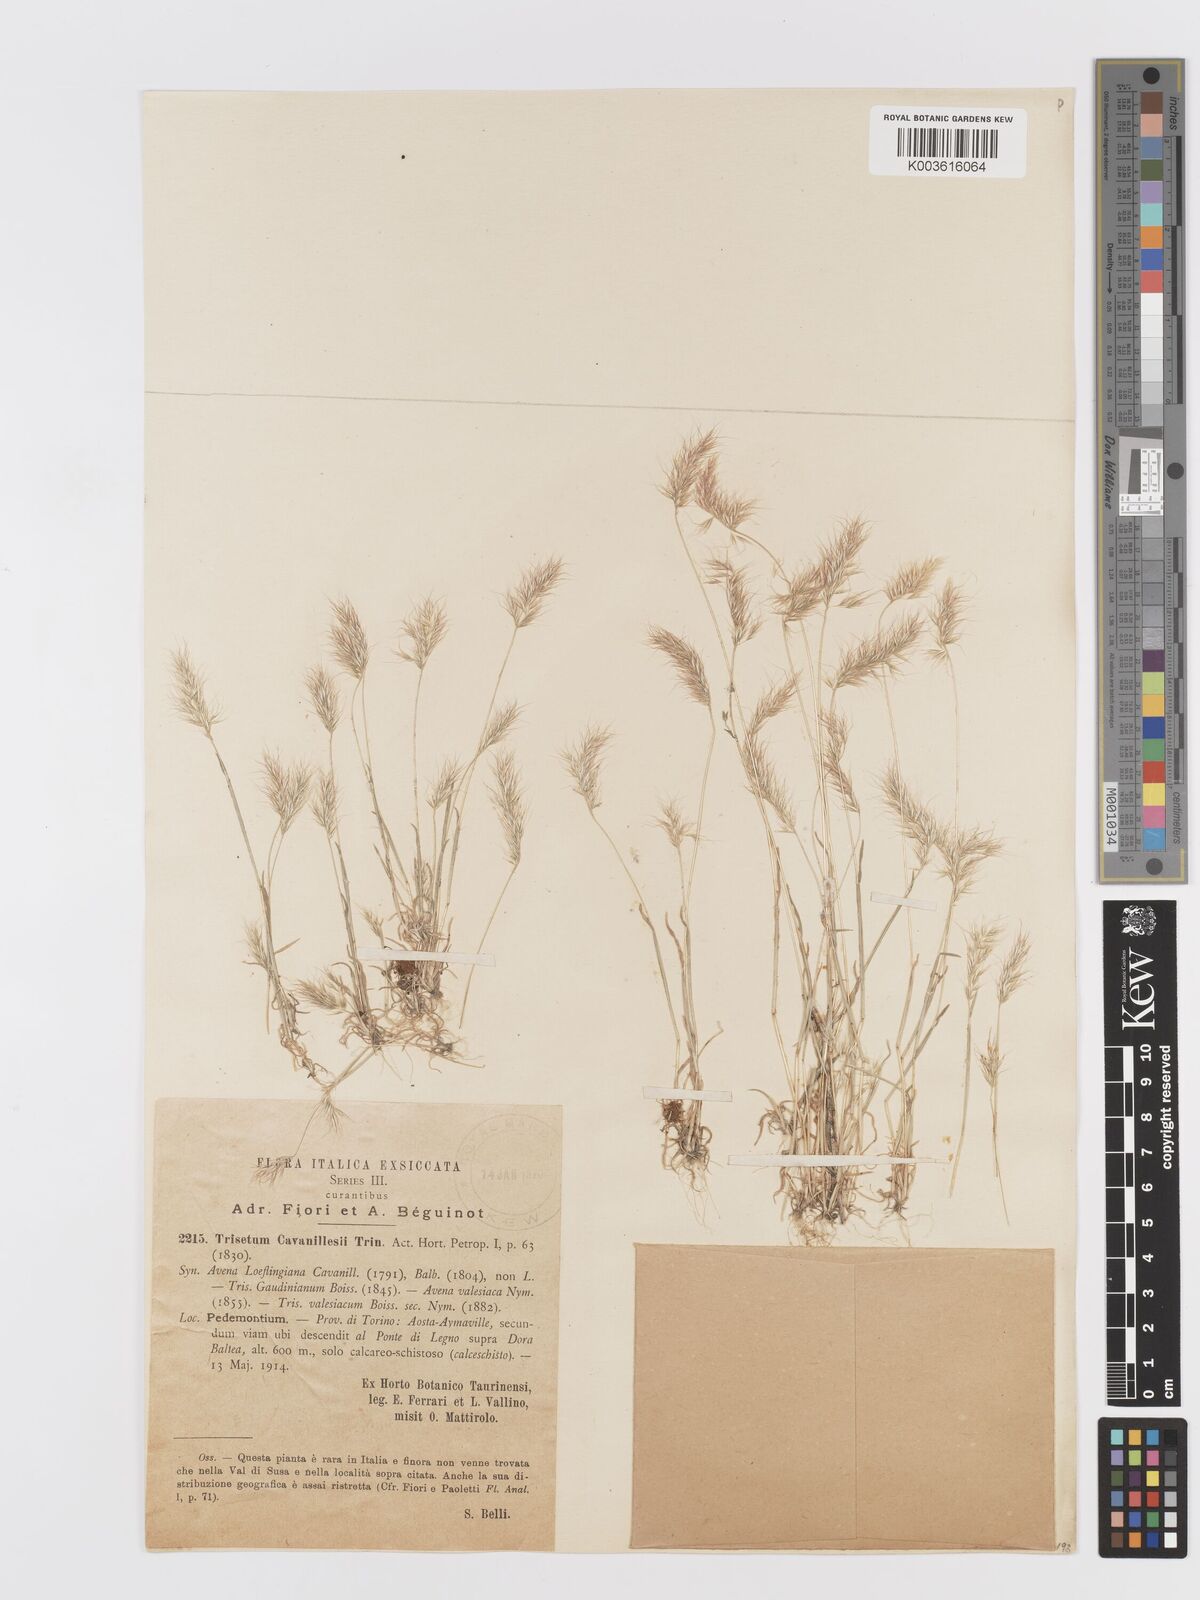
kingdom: Plantae
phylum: Tracheophyta
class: Liliopsida
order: Poales
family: Poaceae
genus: Trisetaria
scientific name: Trisetaria loeflingiana
